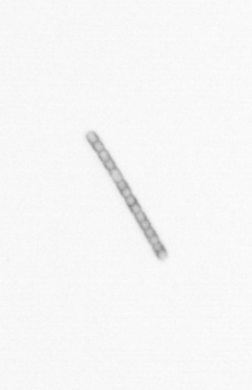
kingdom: Chromista
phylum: Ochrophyta
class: Bacillariophyceae
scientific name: Bacillariophyceae
